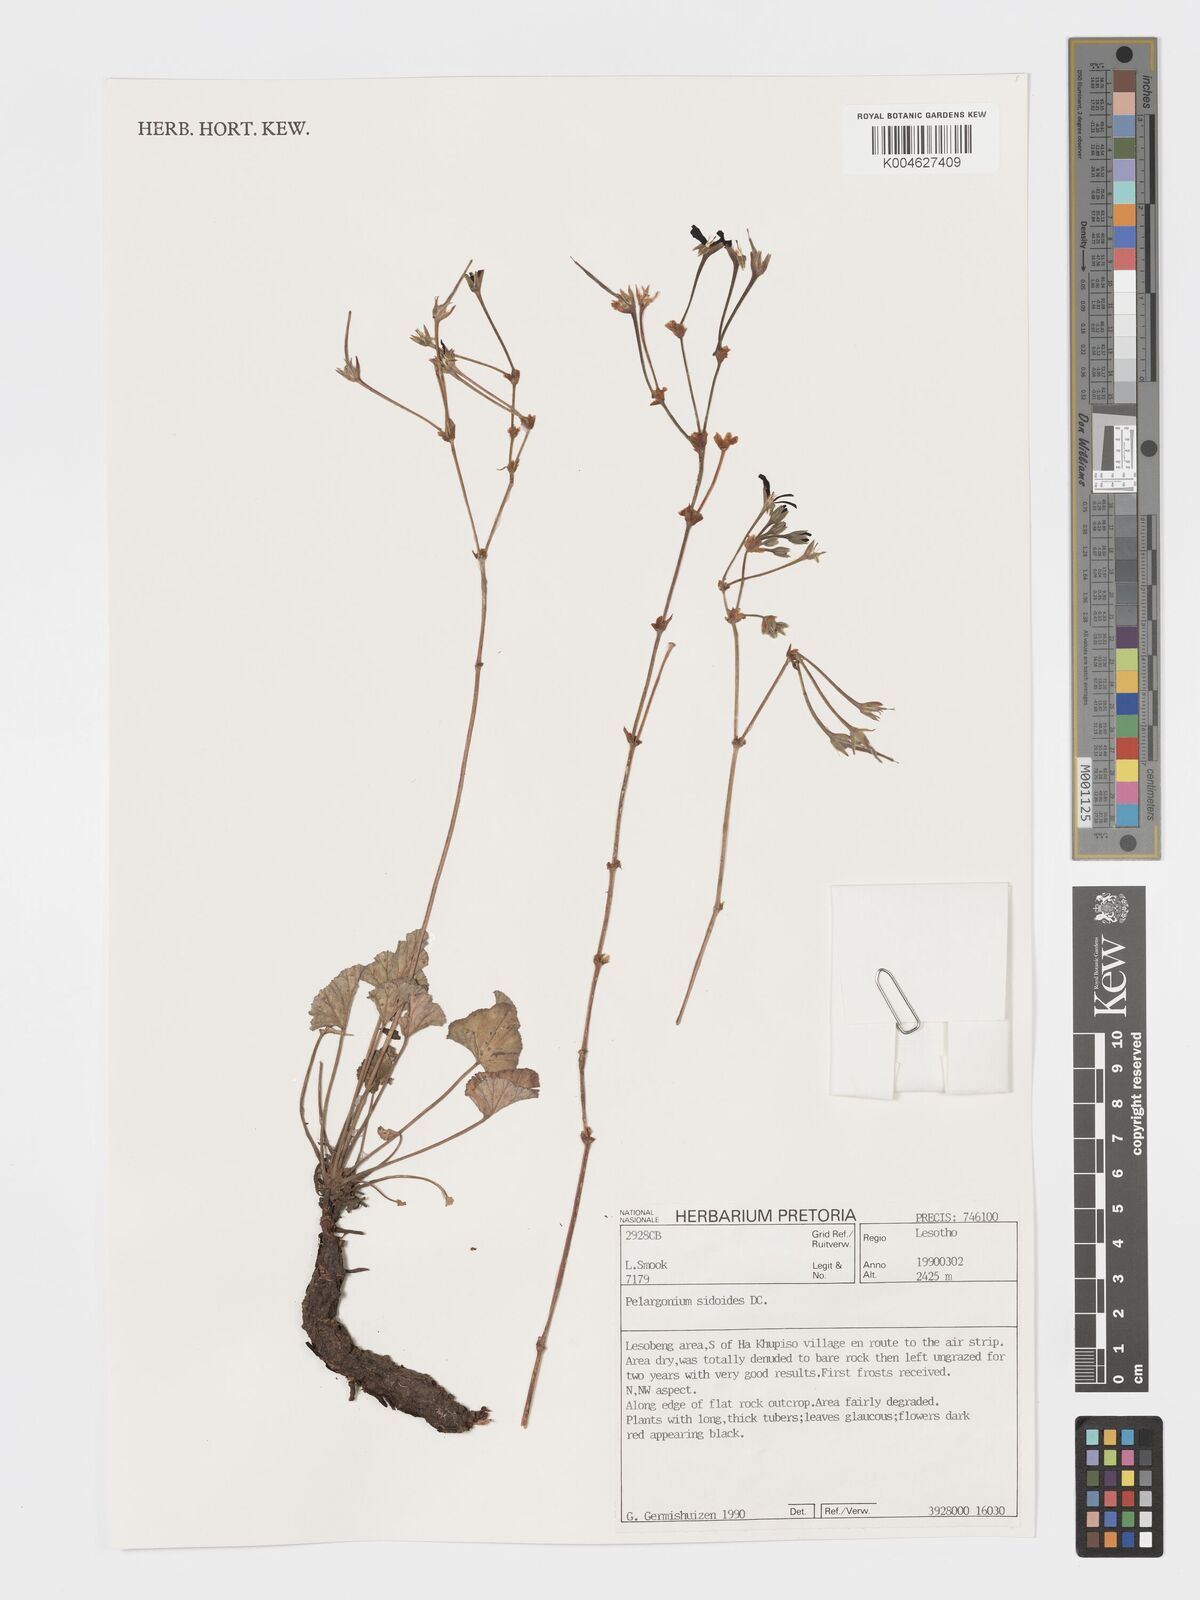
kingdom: Plantae
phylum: Tracheophyta
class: Magnoliopsida
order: Geraniales
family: Geraniaceae
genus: Pelargonium
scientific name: Pelargonium sidoides
